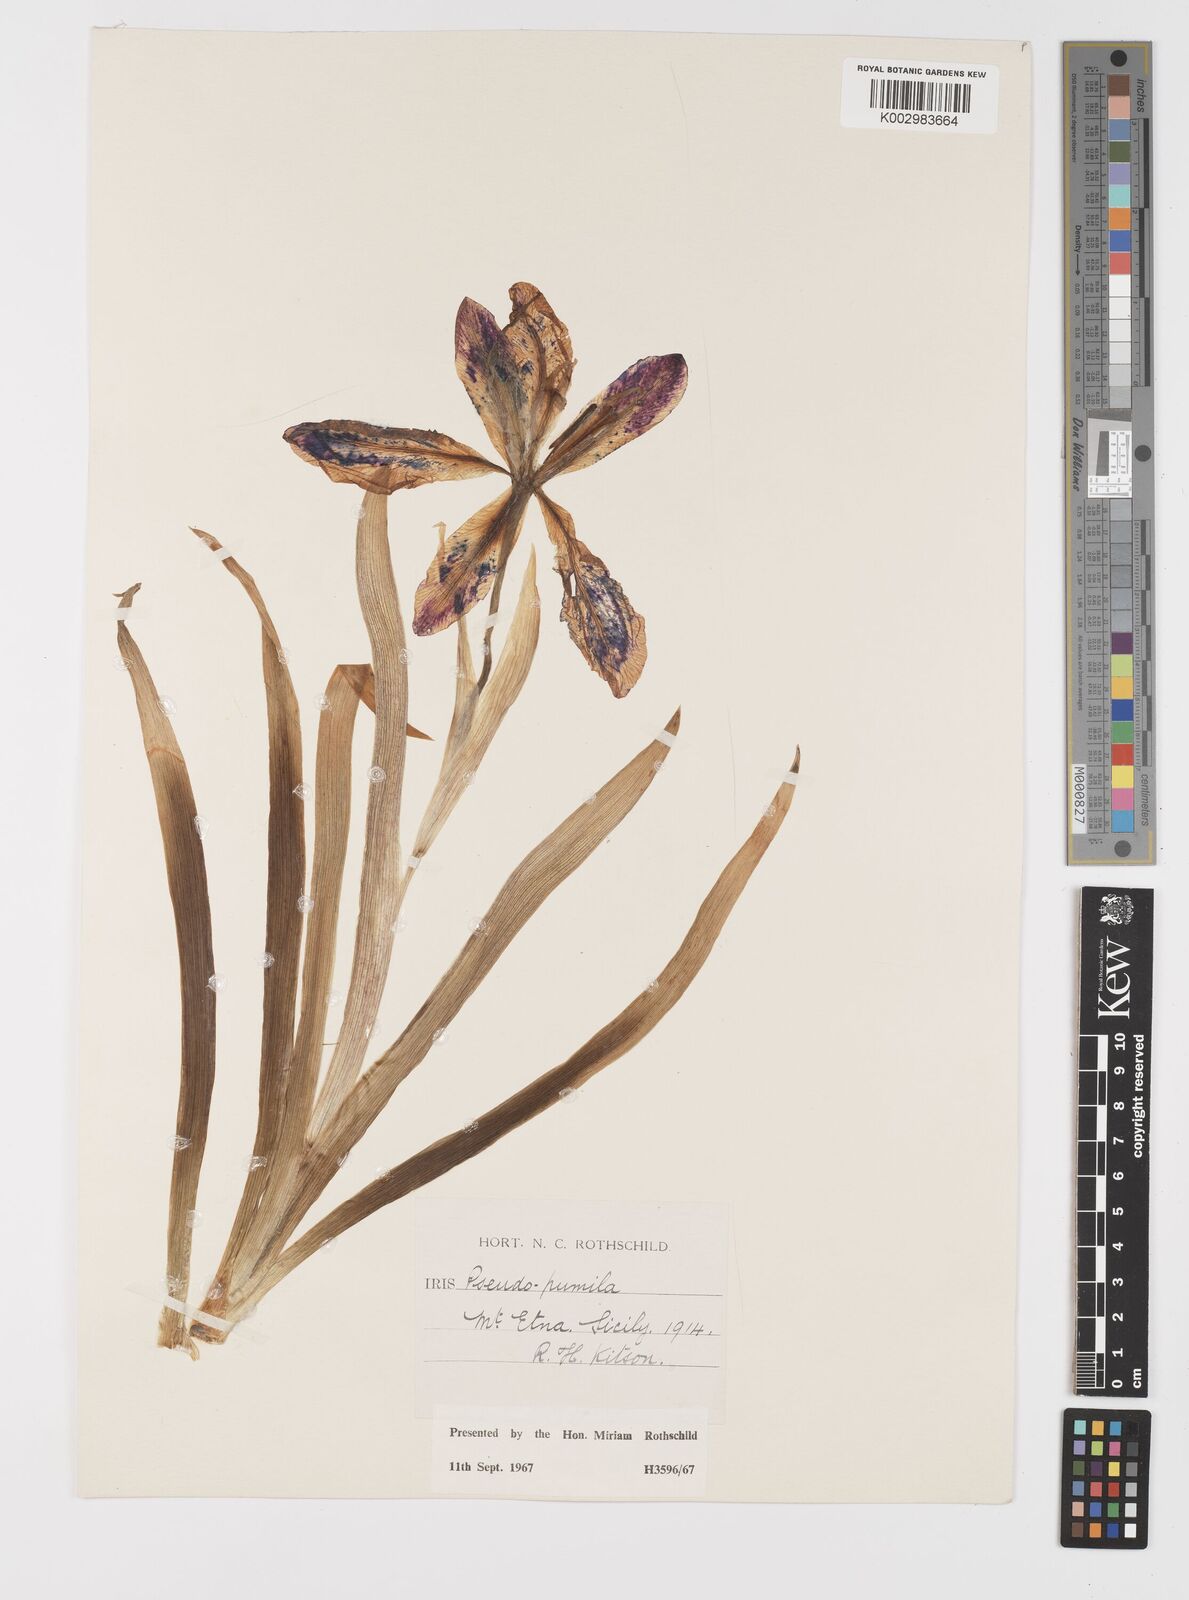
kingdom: Plantae
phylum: Tracheophyta
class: Liliopsida
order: Asparagales
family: Iridaceae
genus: Iris
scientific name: Iris pseudopumila
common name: Southern dwarf iris
